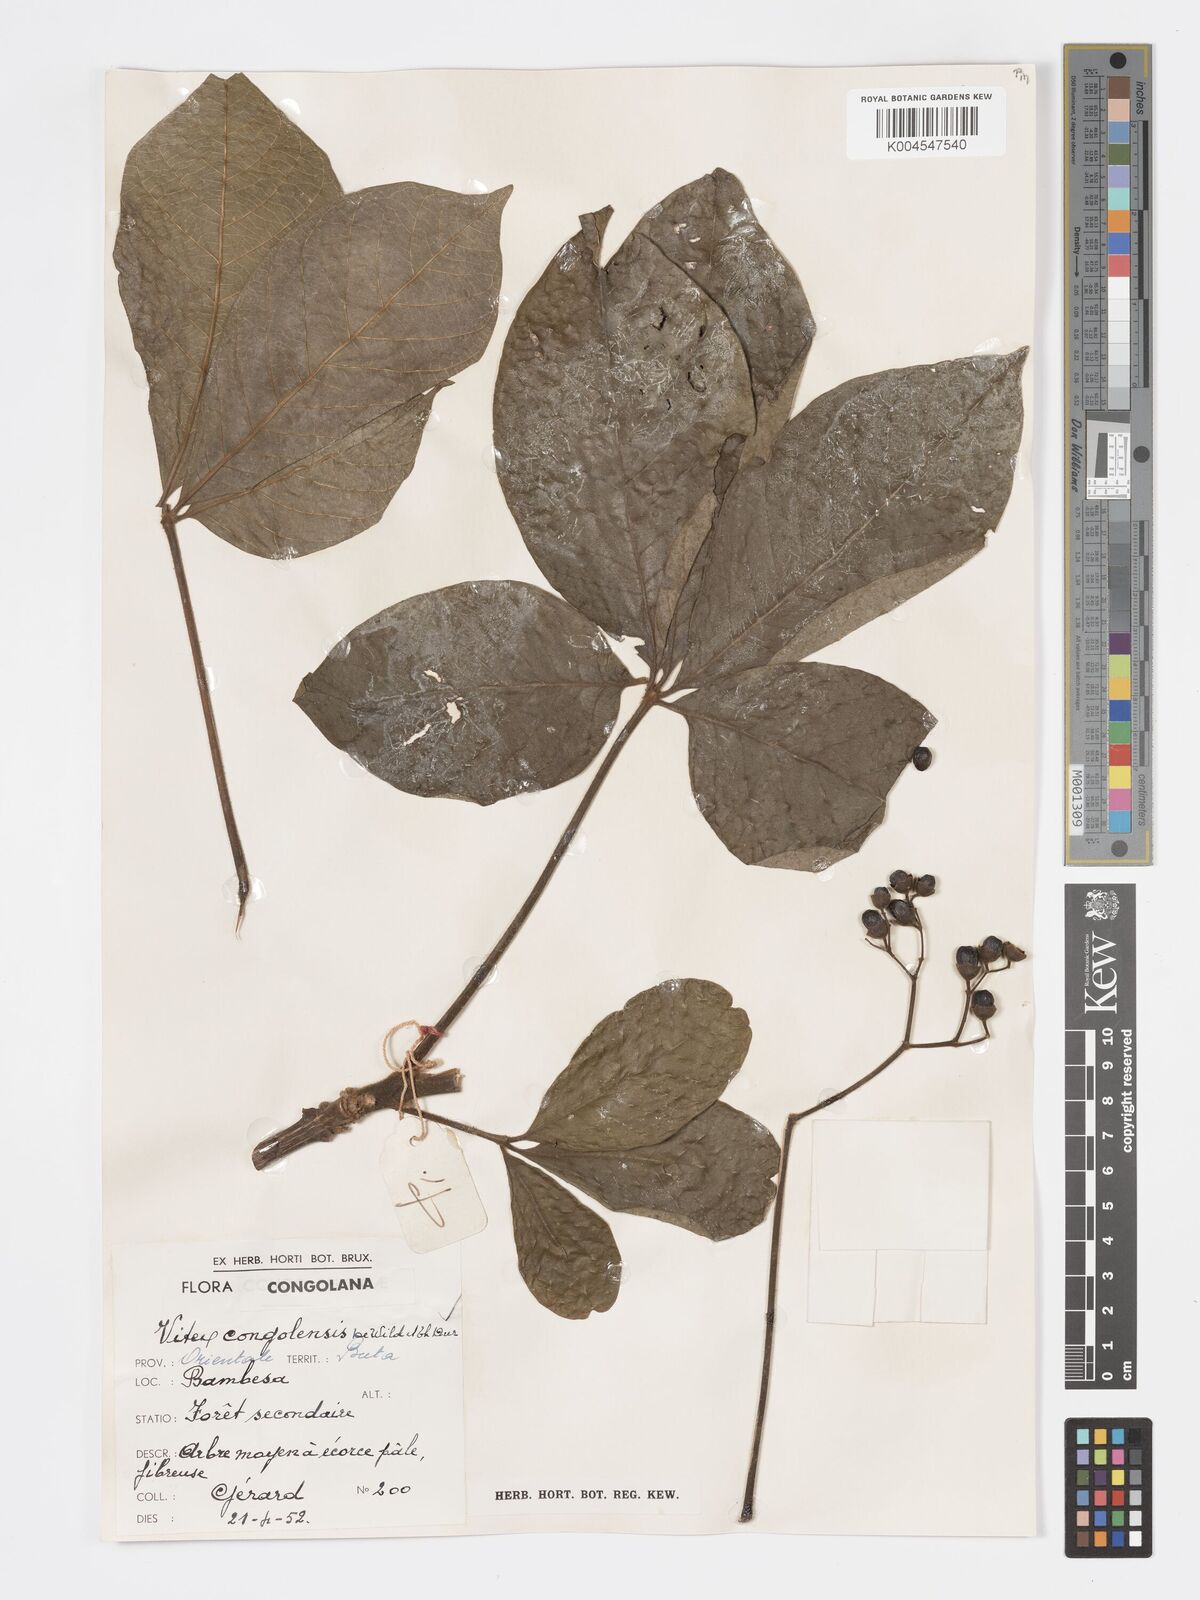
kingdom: Plantae
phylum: Tracheophyta
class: Magnoliopsida
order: Lamiales
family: Lamiaceae
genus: Vitex
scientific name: Vitex congolensis
